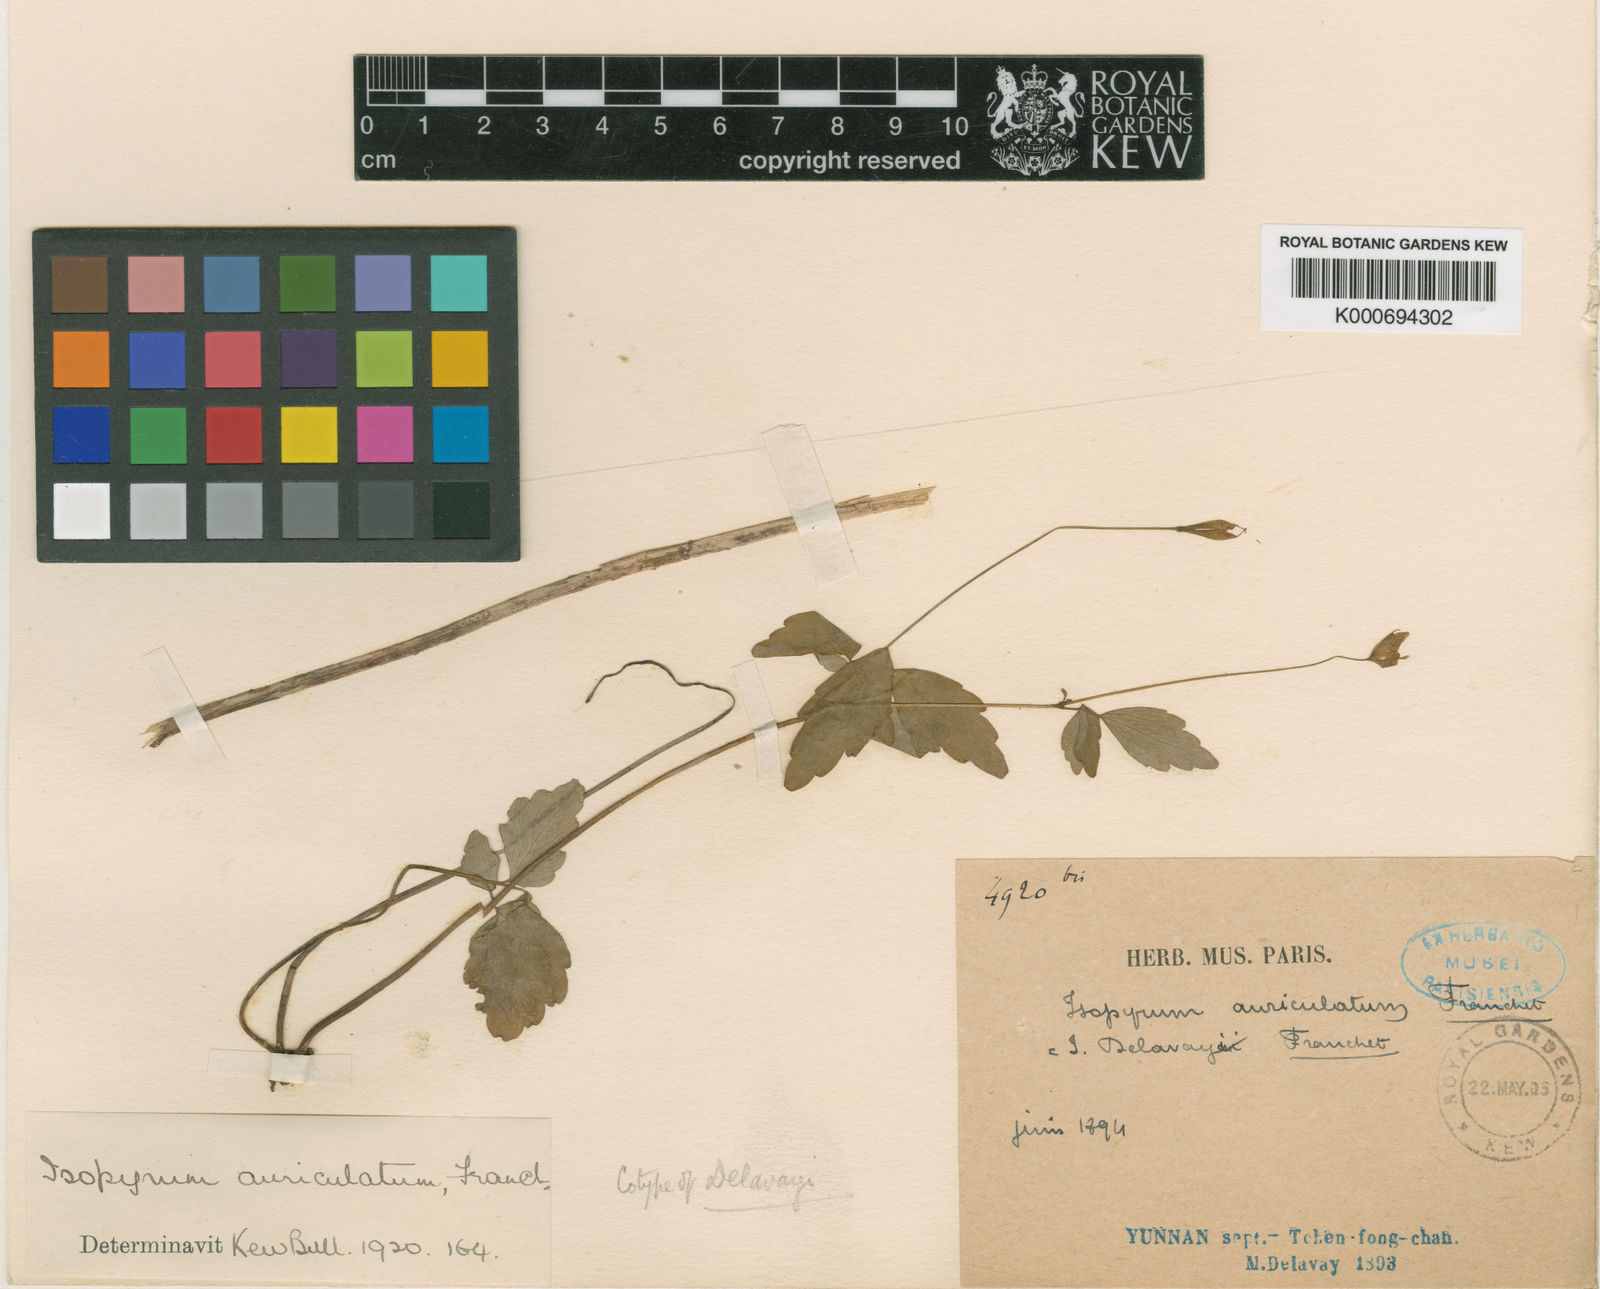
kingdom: Plantae
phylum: Tracheophyta
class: Magnoliopsida
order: Ranunculales
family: Ranunculaceae
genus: Dichocarpum
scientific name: Dichocarpum auriculatum
